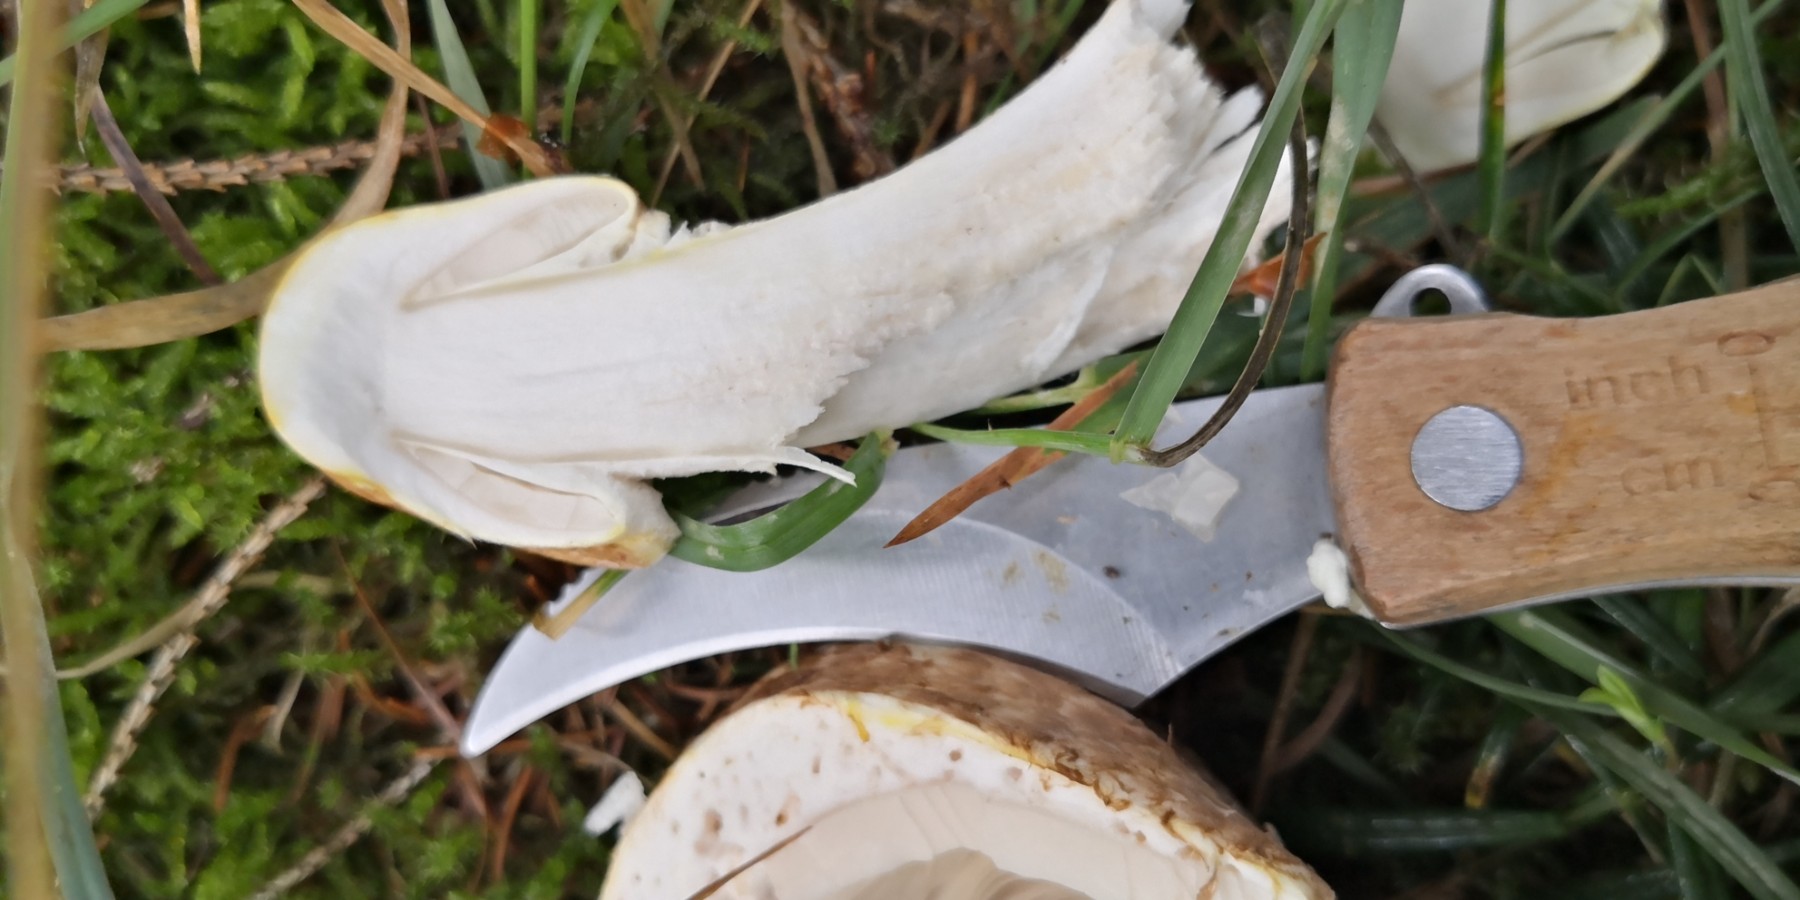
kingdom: Fungi
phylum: Basidiomycota
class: Agaricomycetes
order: Agaricales
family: Agaricaceae
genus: Agaricus
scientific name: Agaricus augustus
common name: prægtig champignon
